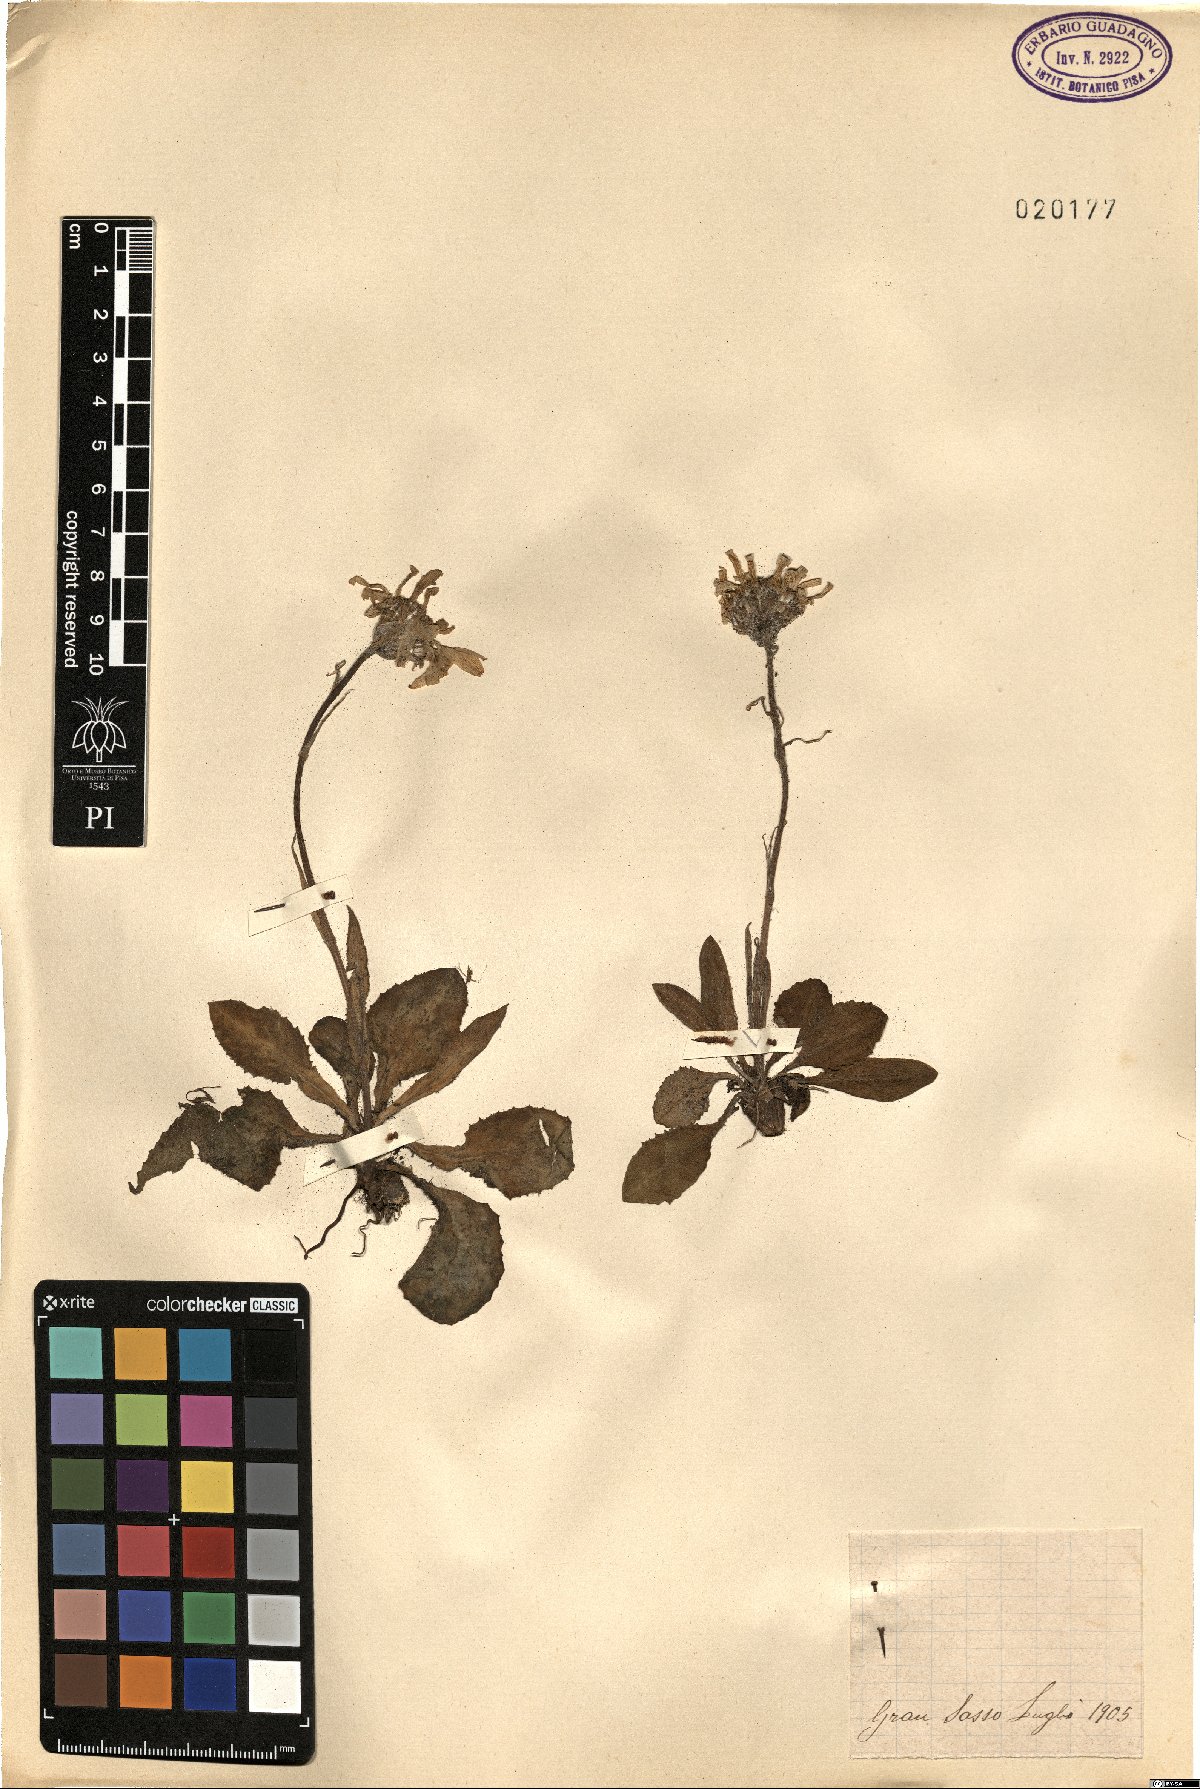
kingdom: Plantae
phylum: Tracheophyta
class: Magnoliopsida
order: Asterales
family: Asteraceae
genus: Senecio
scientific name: Senecio
